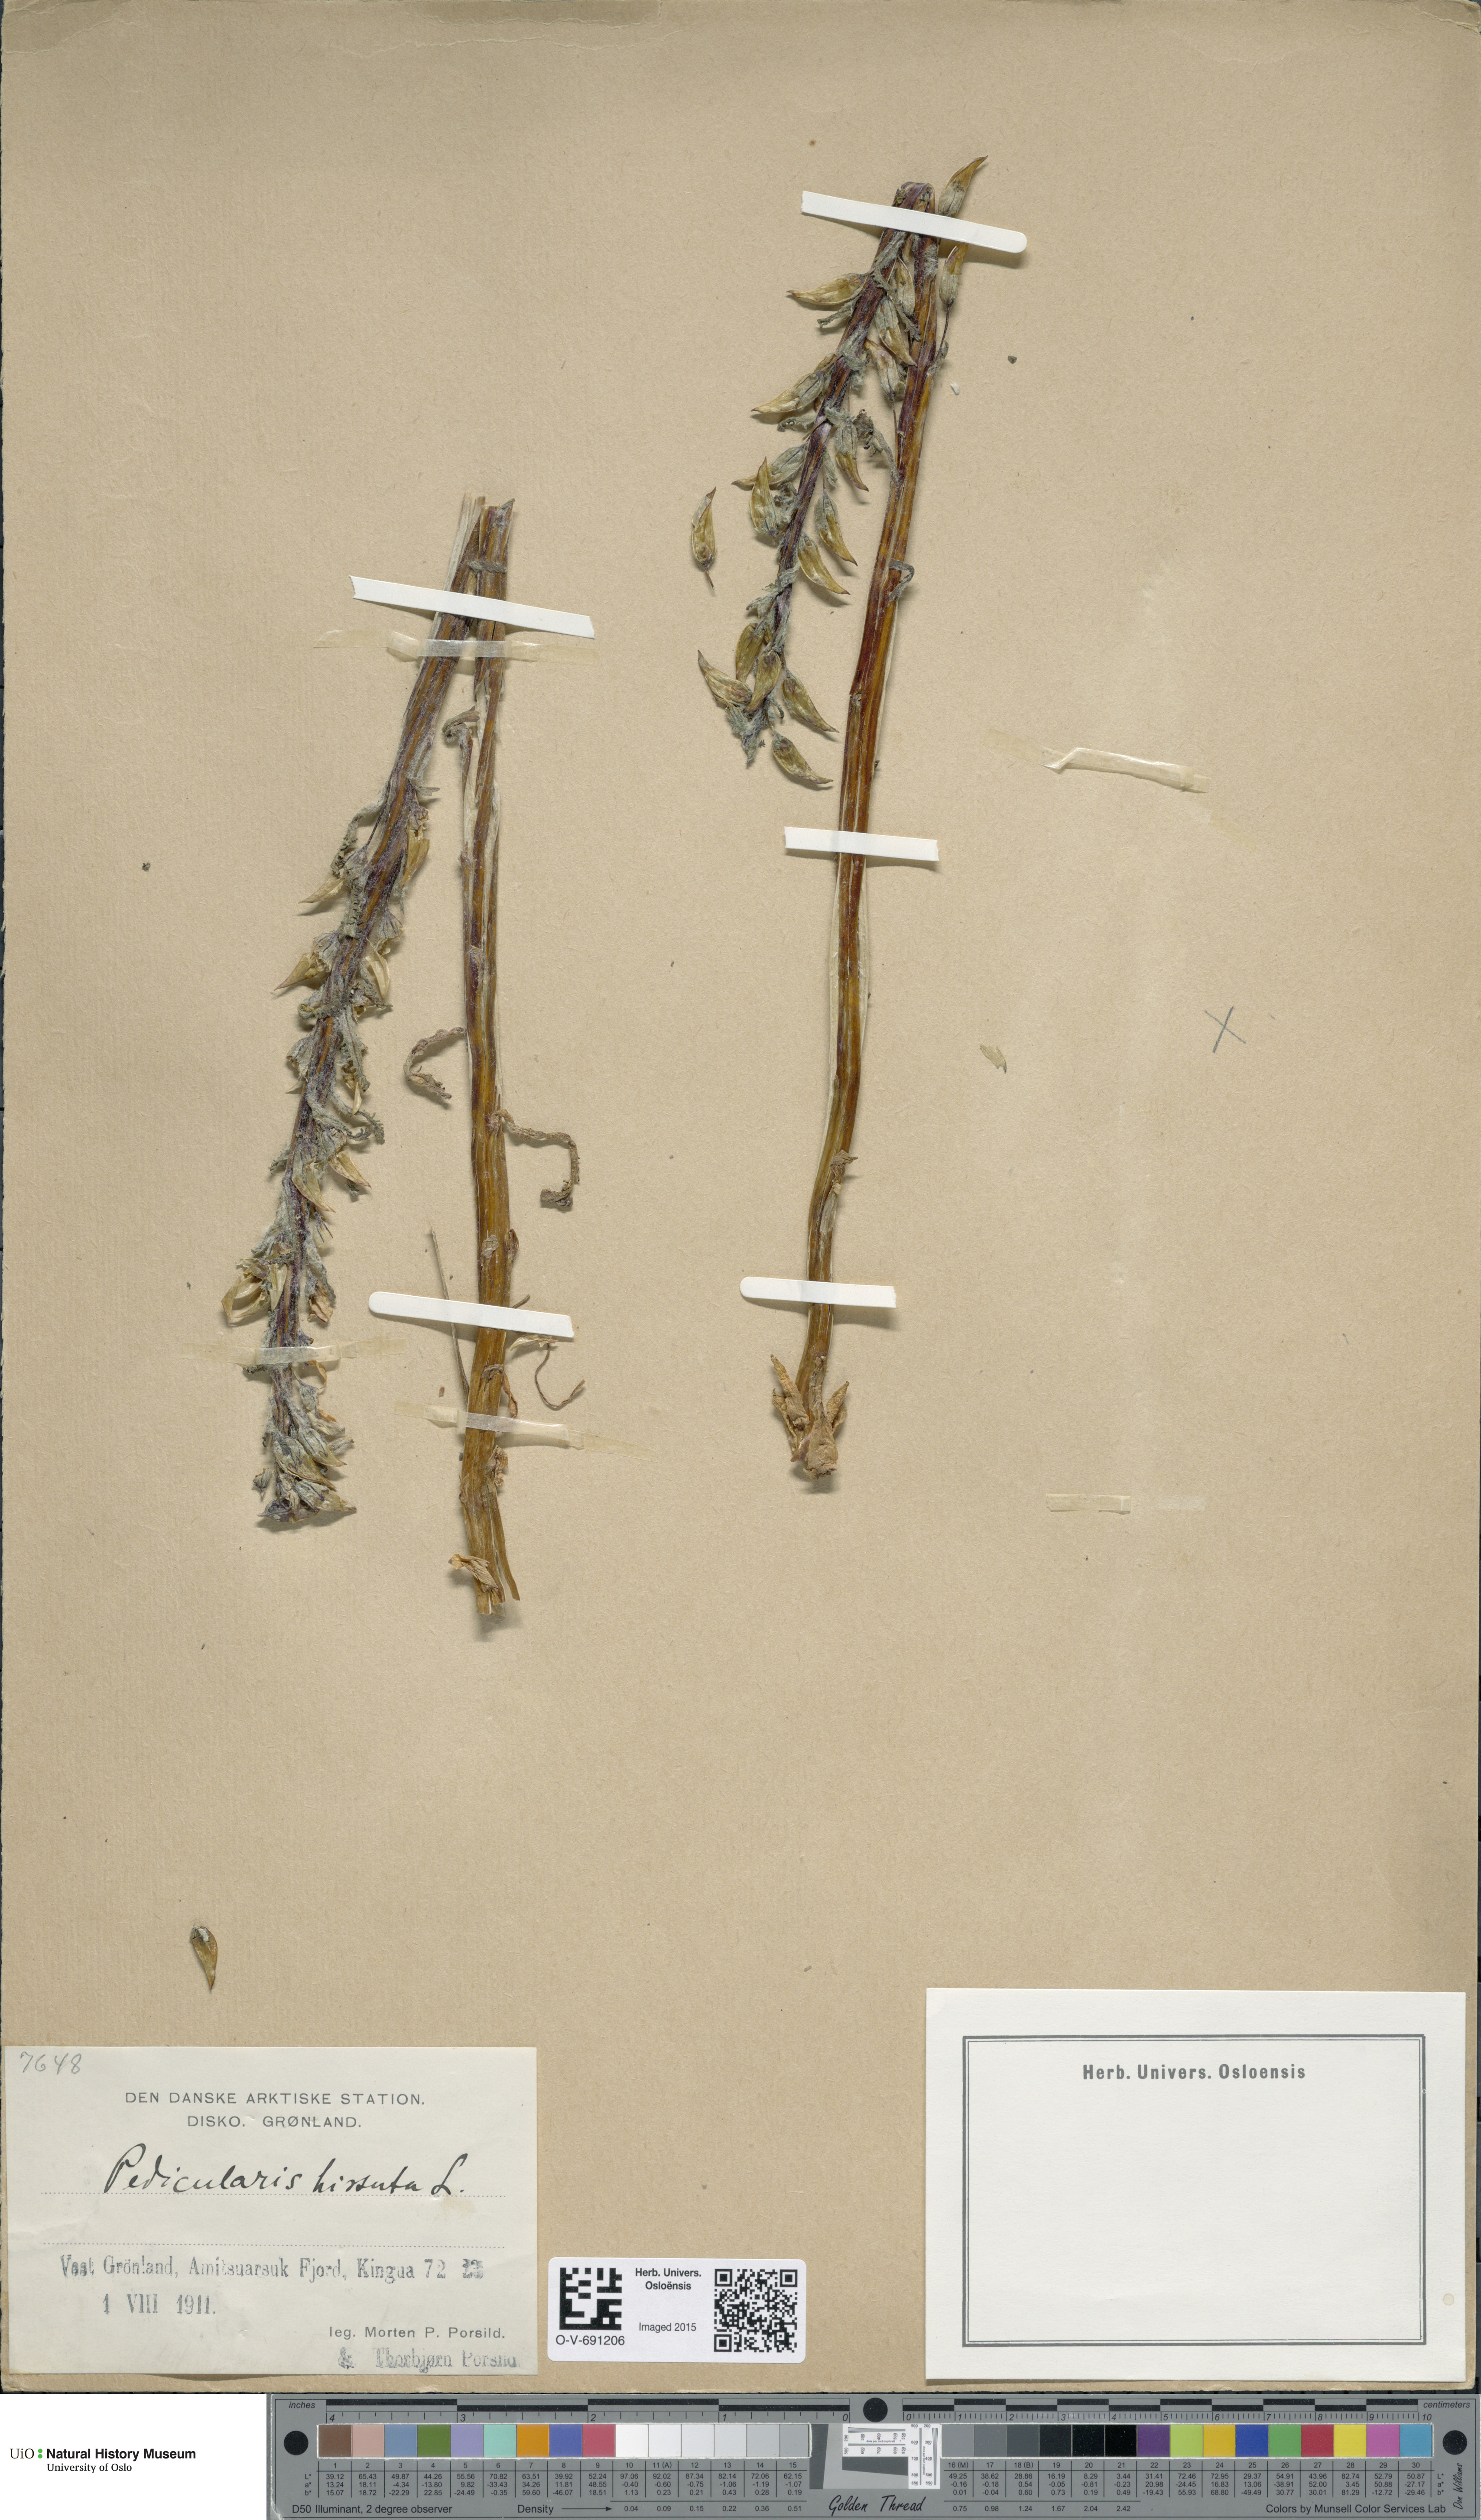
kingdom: Plantae
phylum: Tracheophyta
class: Magnoliopsida
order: Lamiales
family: Orobanchaceae
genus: Pedicularis
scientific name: Pedicularis hirsuta
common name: Hairy lousewort
